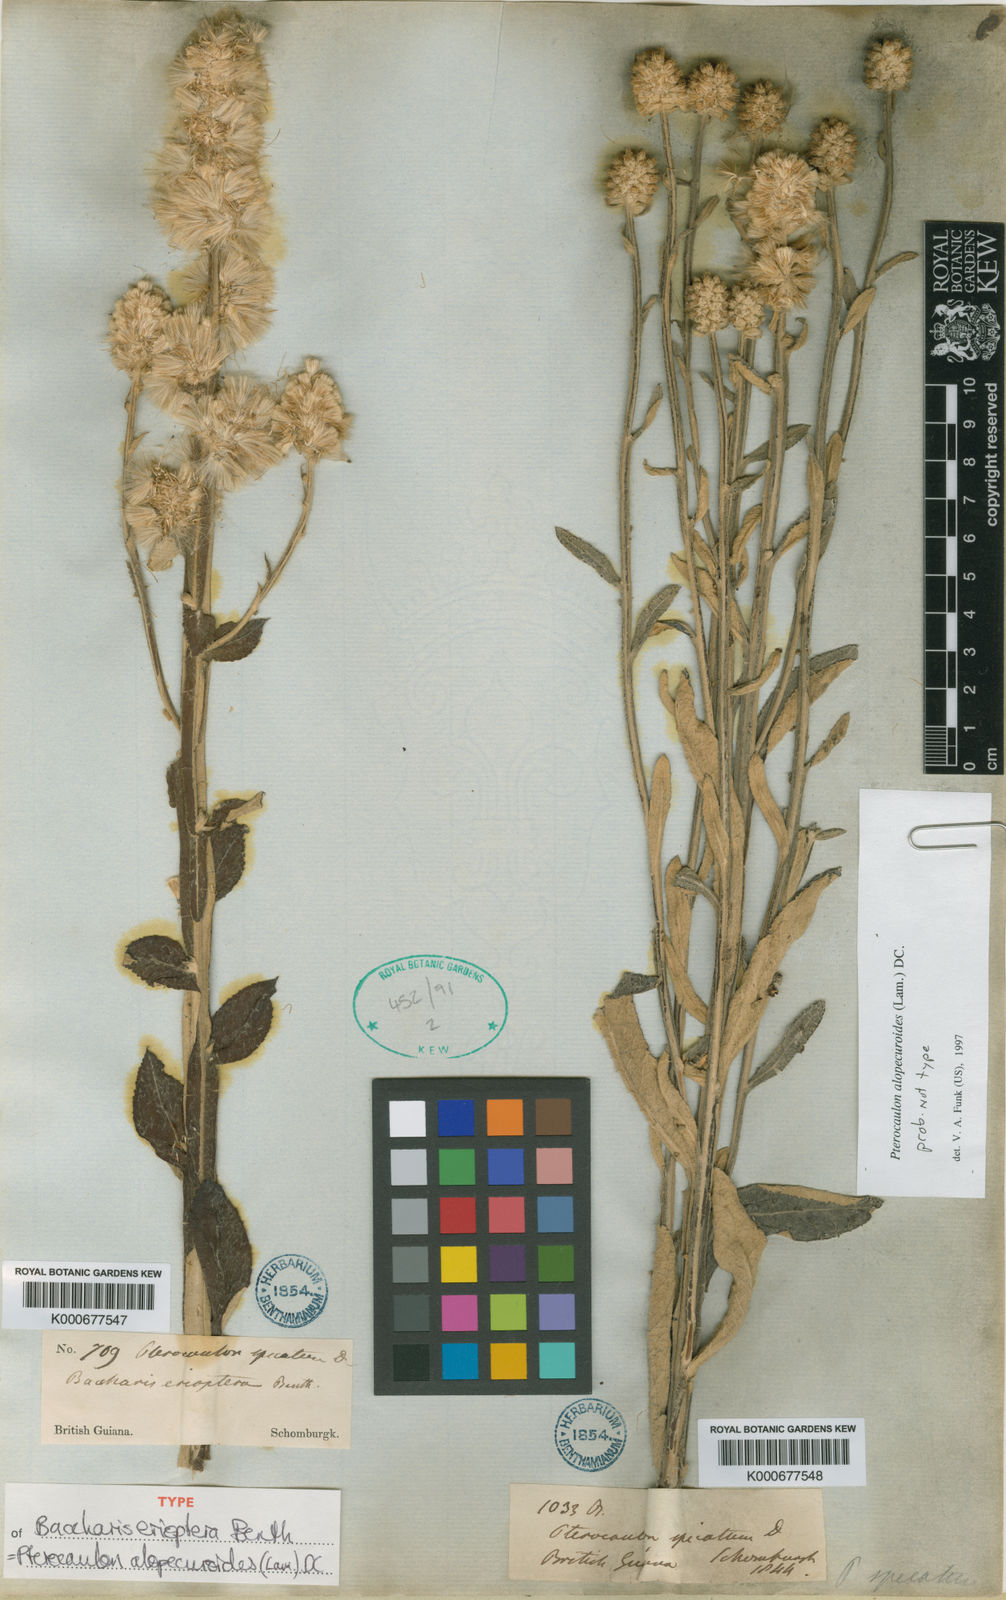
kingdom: Plantae
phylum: Tracheophyta
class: Magnoliopsida
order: Asterales
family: Asteraceae
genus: Pterocaulon
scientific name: Pterocaulon alopecuroides
